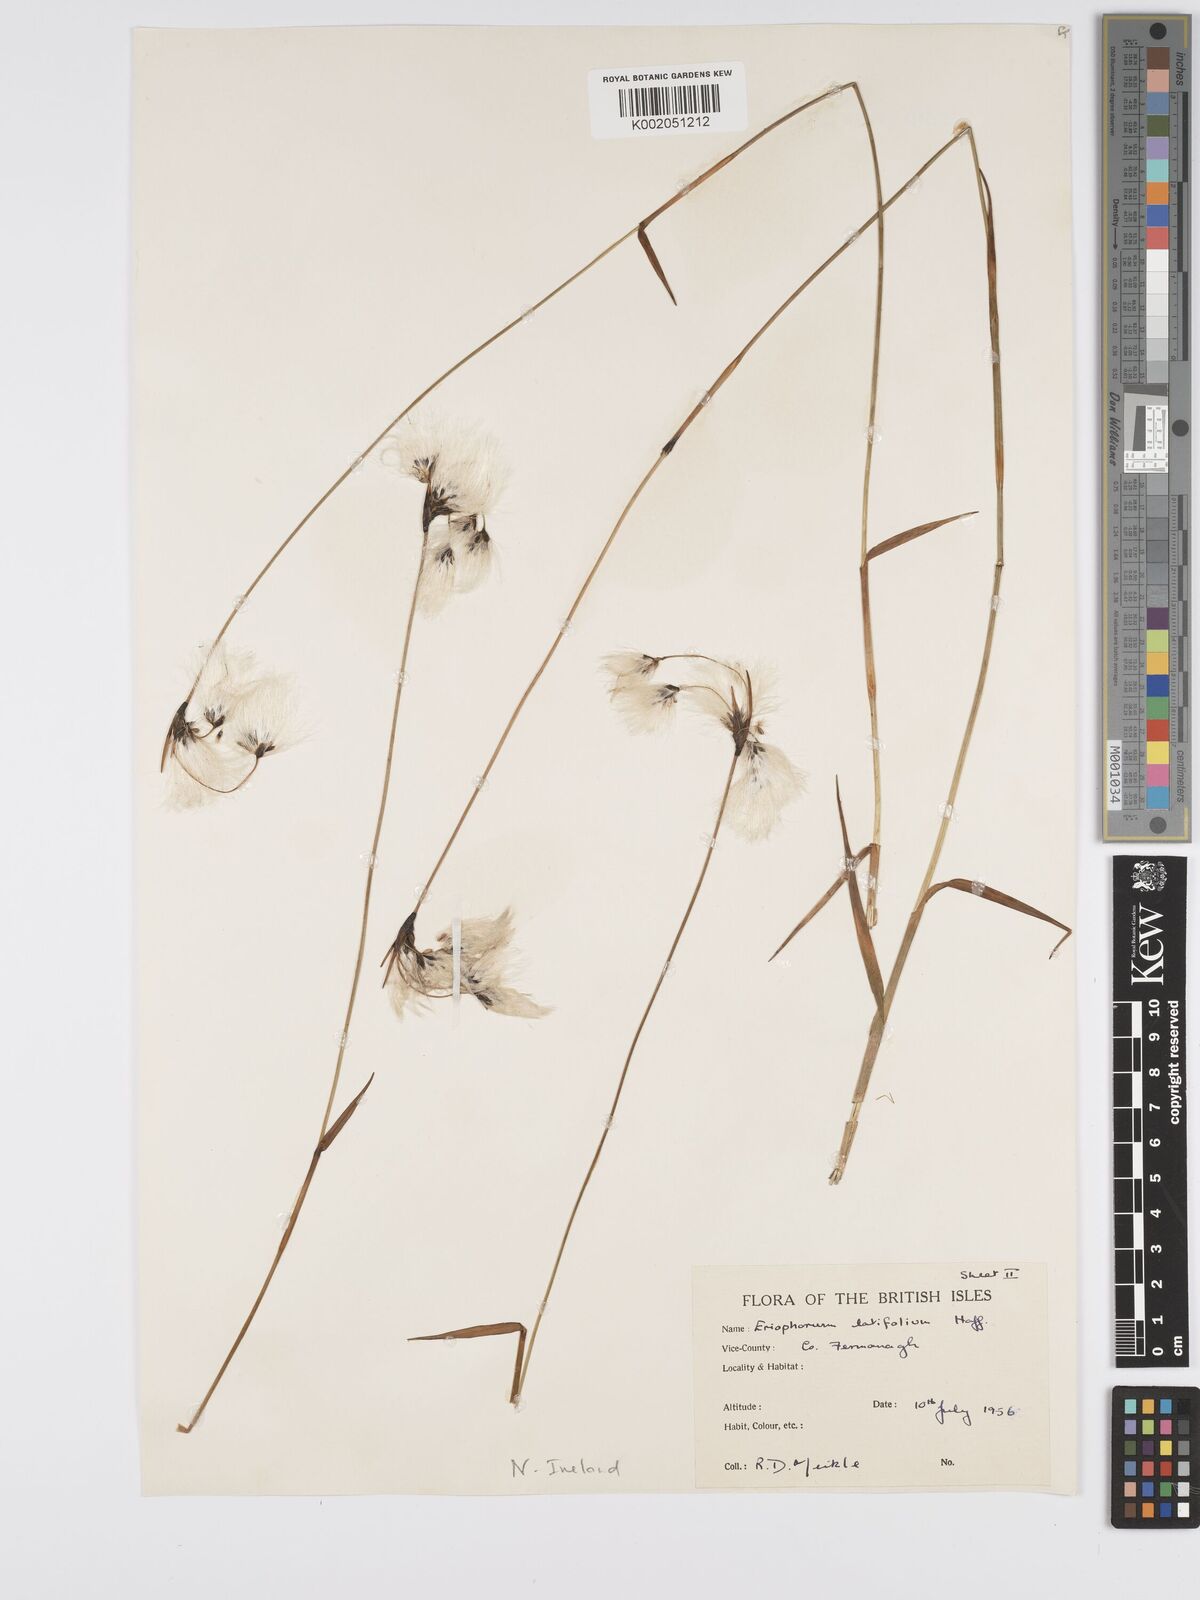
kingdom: Plantae
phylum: Tracheophyta
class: Liliopsida
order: Poales
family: Cyperaceae
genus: Eriophorum
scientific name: Eriophorum latifolium
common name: Broad-leaved cottongrass
